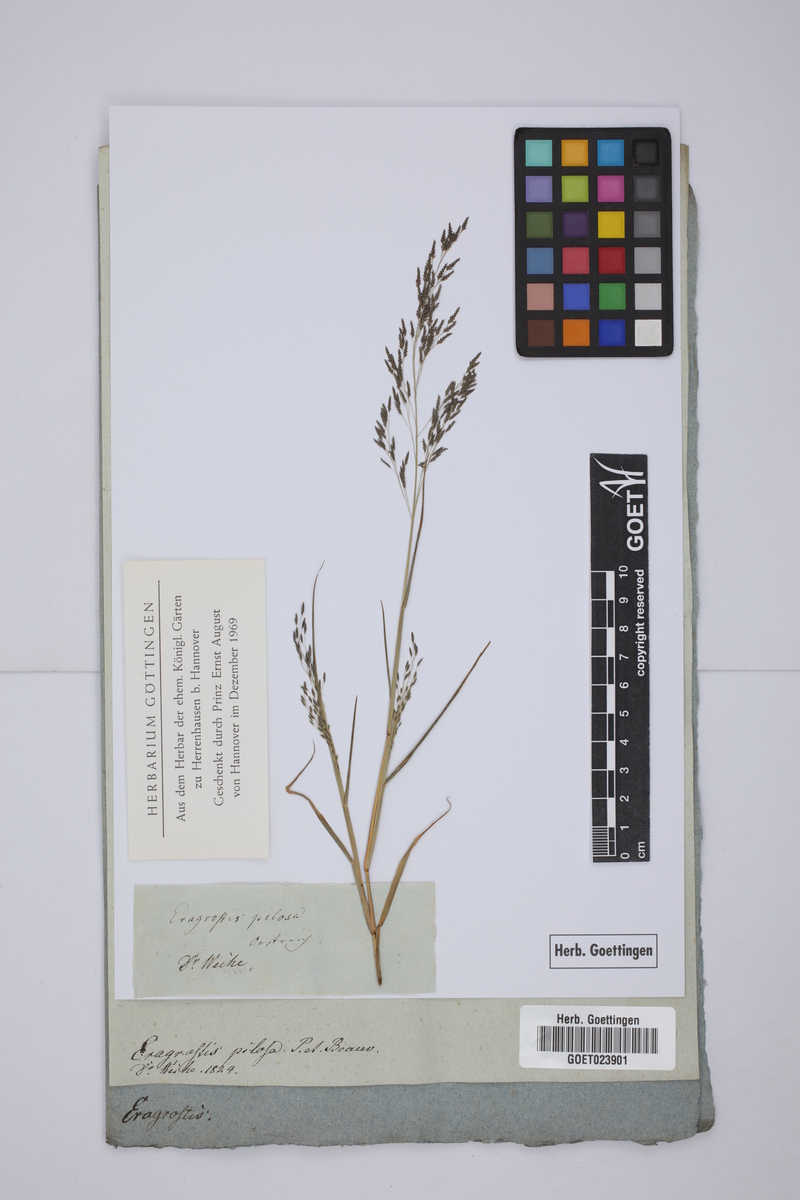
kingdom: Plantae
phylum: Tracheophyta
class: Liliopsida
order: Poales
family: Poaceae
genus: Eragrostis
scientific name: Eragrostis pilosa
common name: Indian lovegrass
